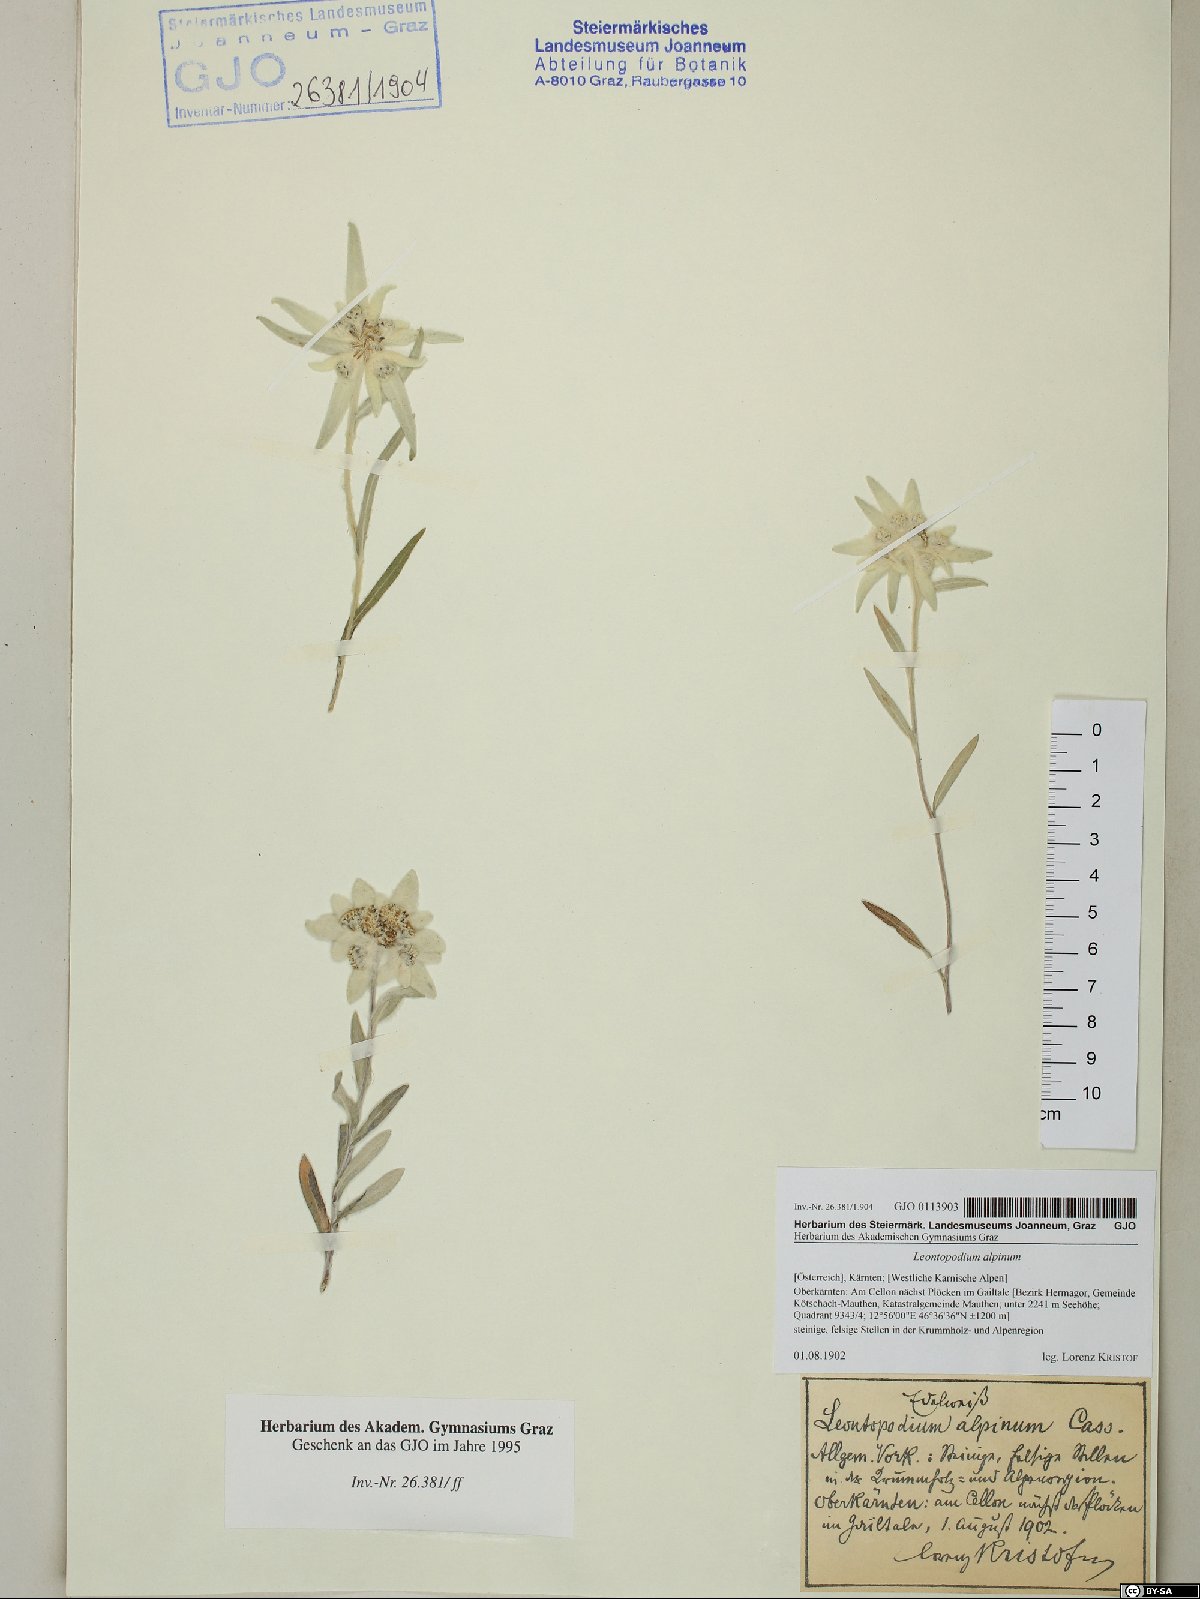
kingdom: Plantae
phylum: Tracheophyta
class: Magnoliopsida
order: Asterales
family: Asteraceae
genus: Leontopodium
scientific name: Leontopodium nivale
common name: Edelweiss
